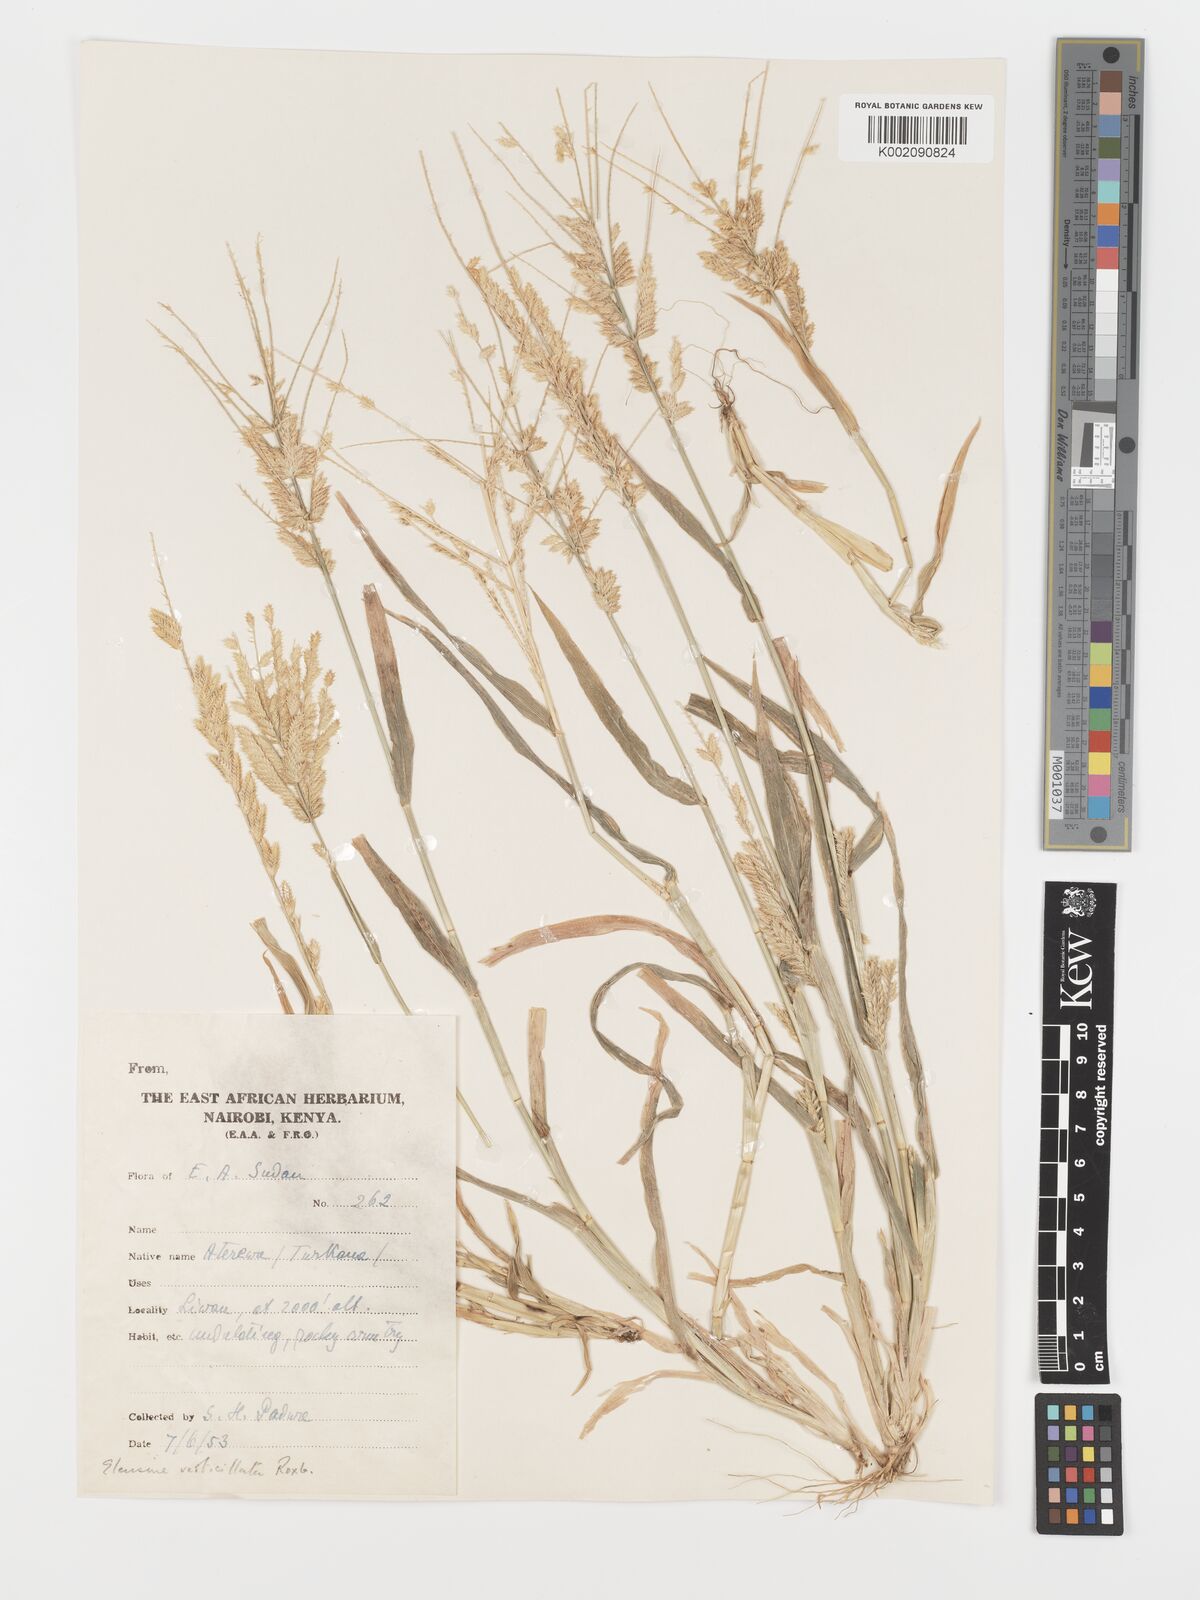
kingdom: Plantae
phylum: Tracheophyta
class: Liliopsida
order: Poales
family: Poaceae
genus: Acrachne
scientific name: Acrachne racemosa
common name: Goosegrass
